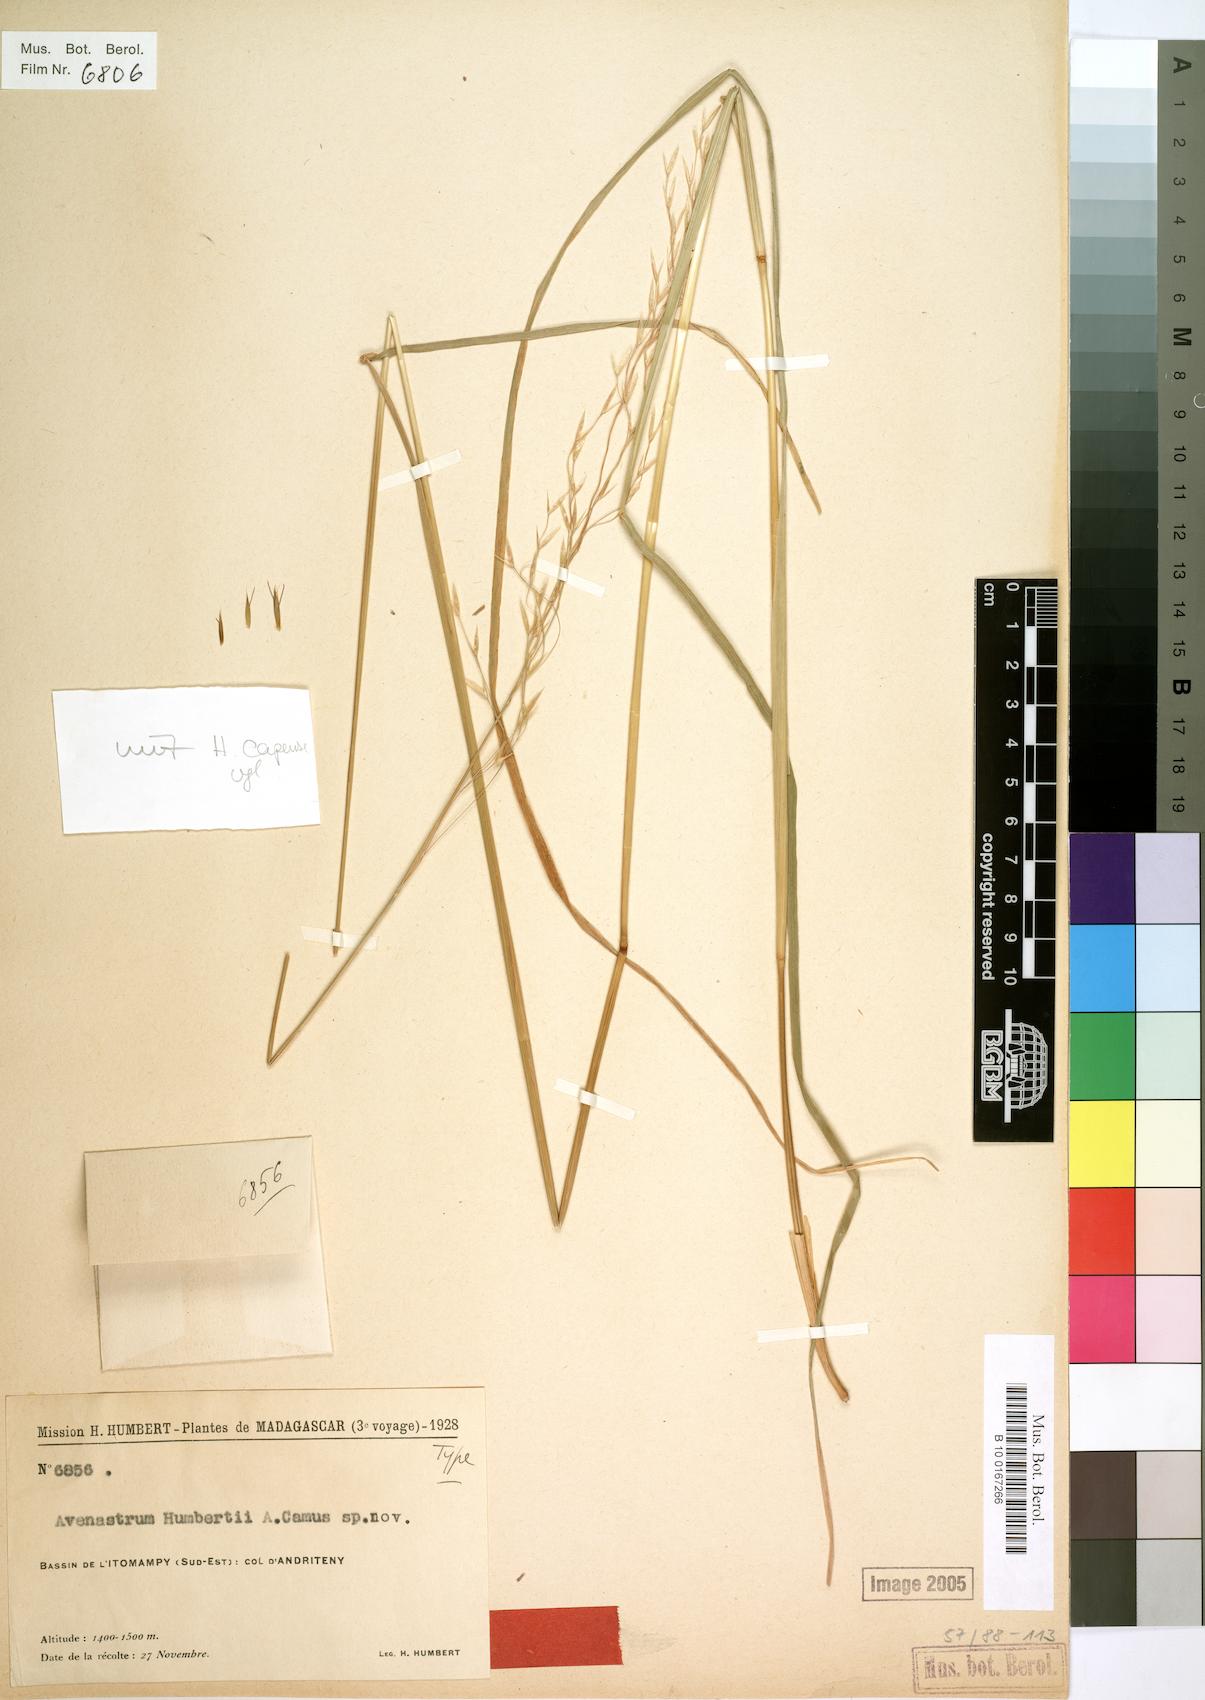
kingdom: Plantae
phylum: Tracheophyta
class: Liliopsida
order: Poales
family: Poaceae
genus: Trisetopsis
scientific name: Trisetopsis elongata
